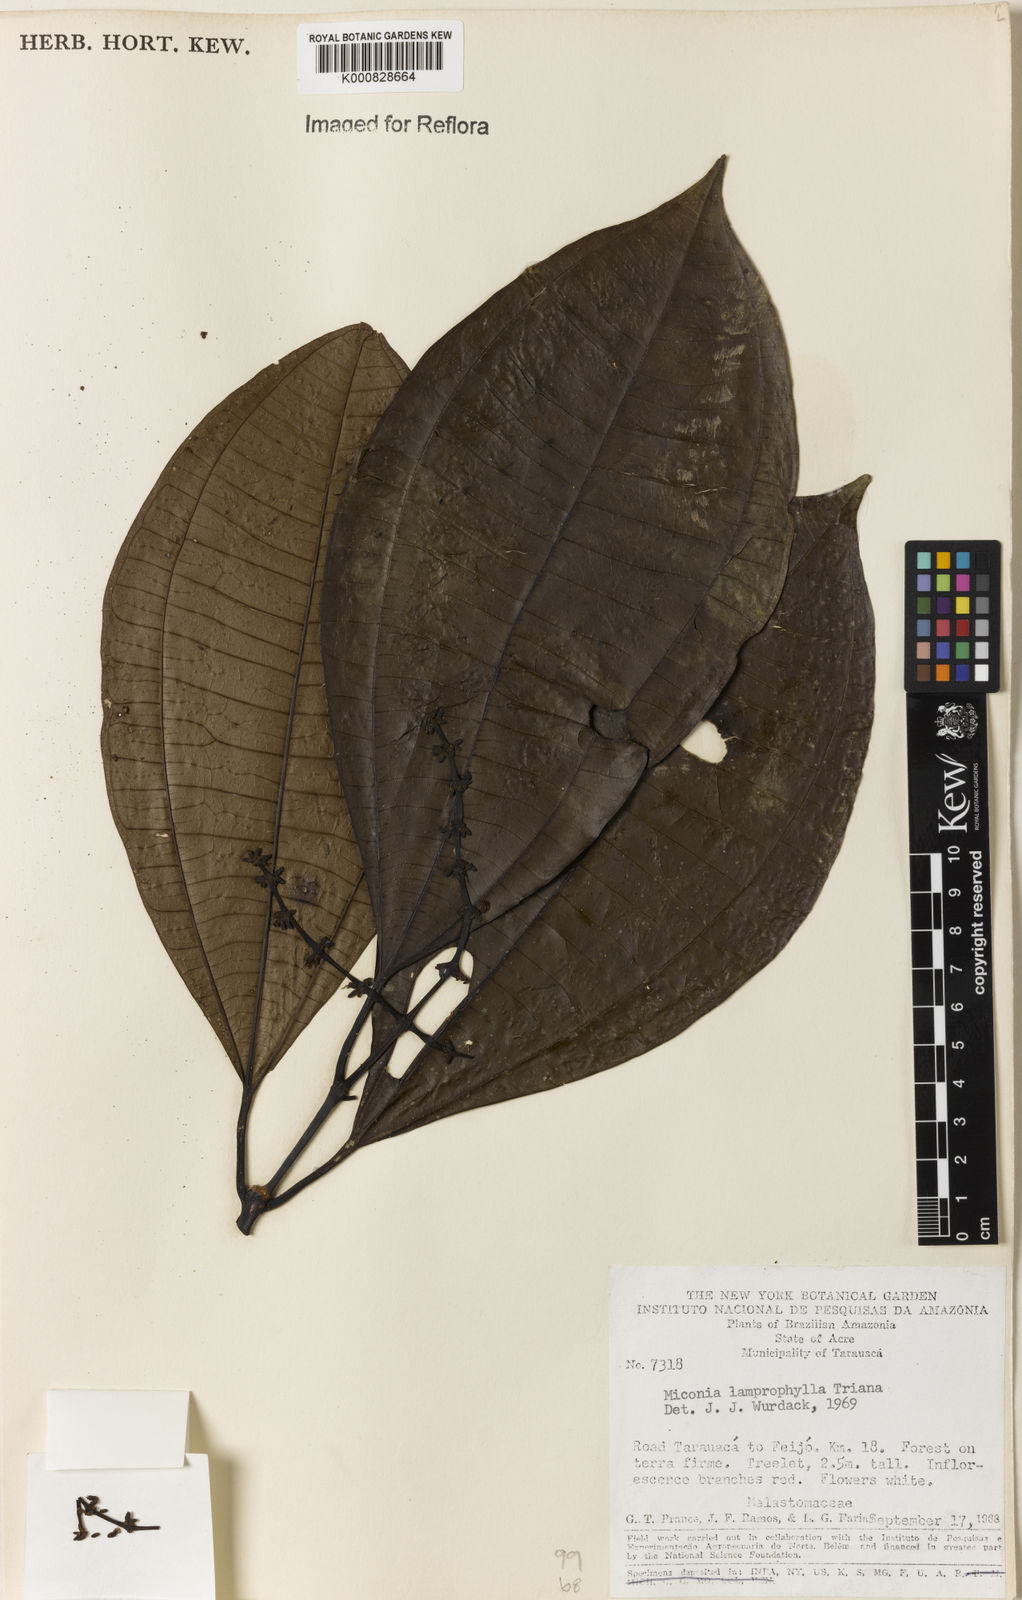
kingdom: Plantae
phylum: Tracheophyta
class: Magnoliopsida
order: Myrtales
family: Melastomataceae
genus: Miconia
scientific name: Miconia lamprophylla
